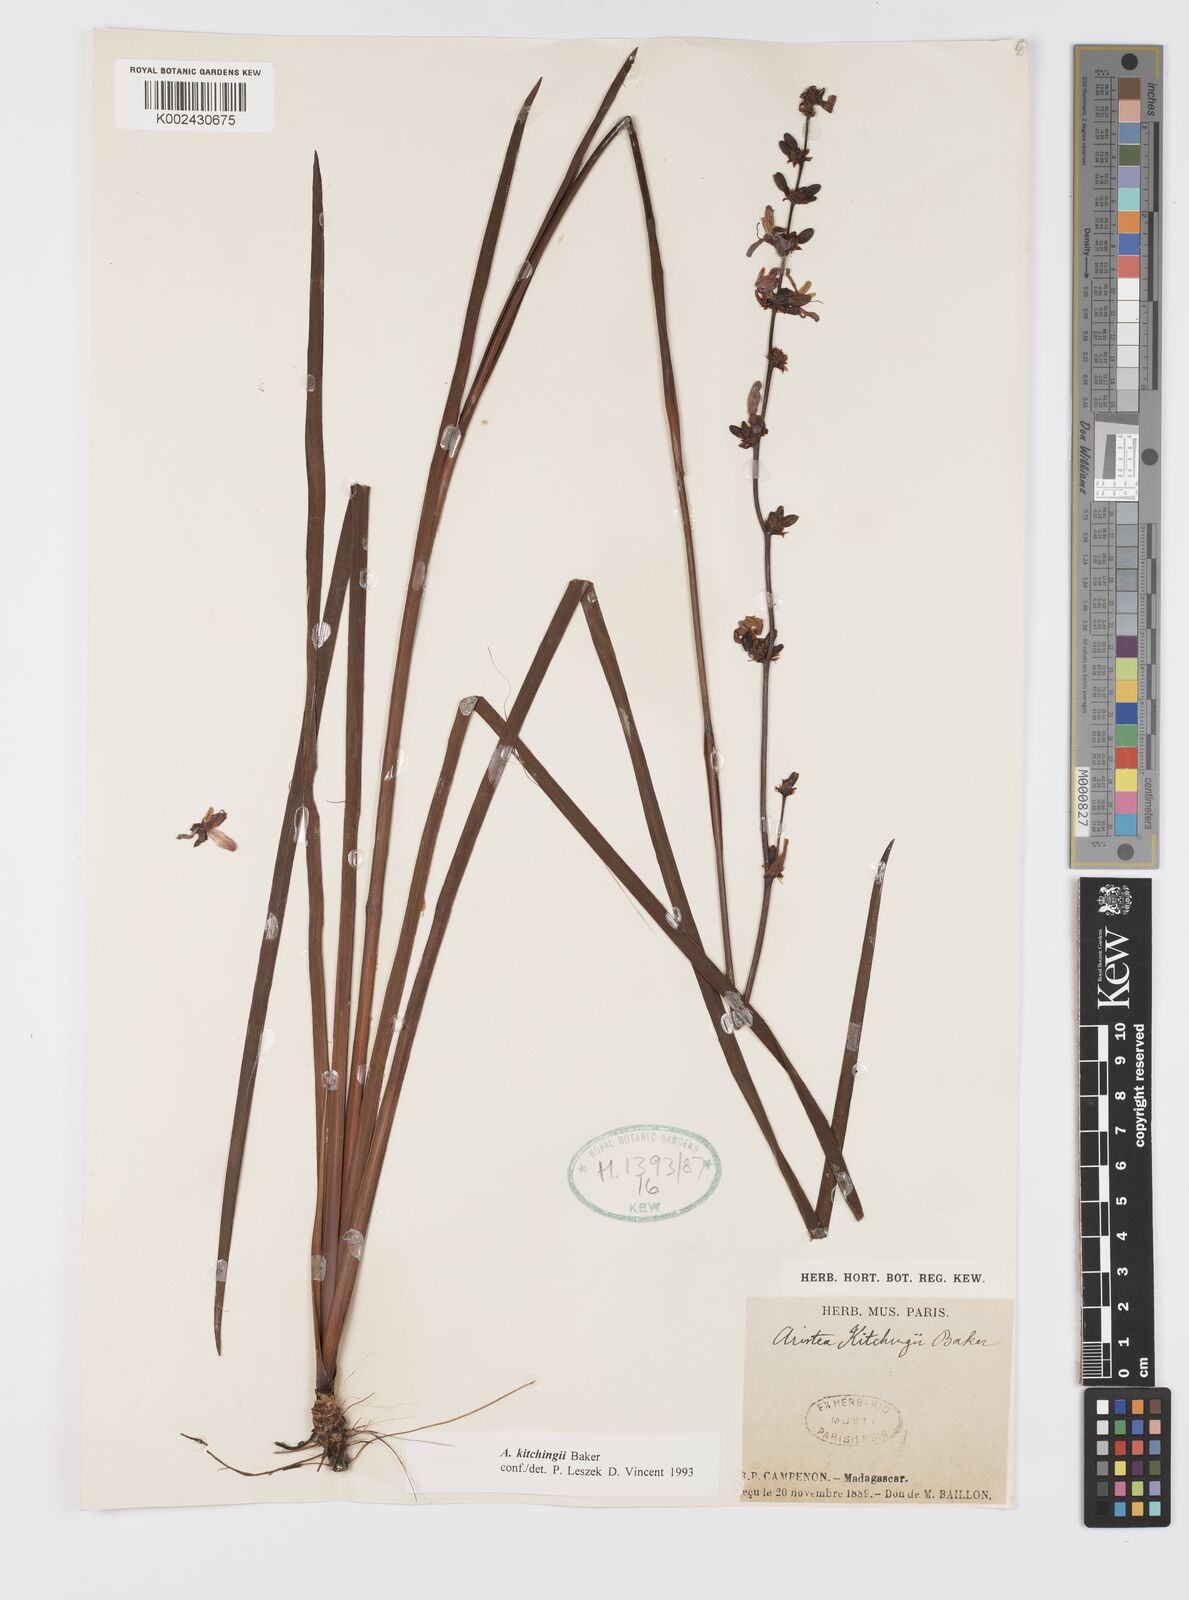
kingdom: Plantae
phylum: Tracheophyta
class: Liliopsida
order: Asparagales
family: Iridaceae
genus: Aristea
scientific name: Aristea kitchingii
